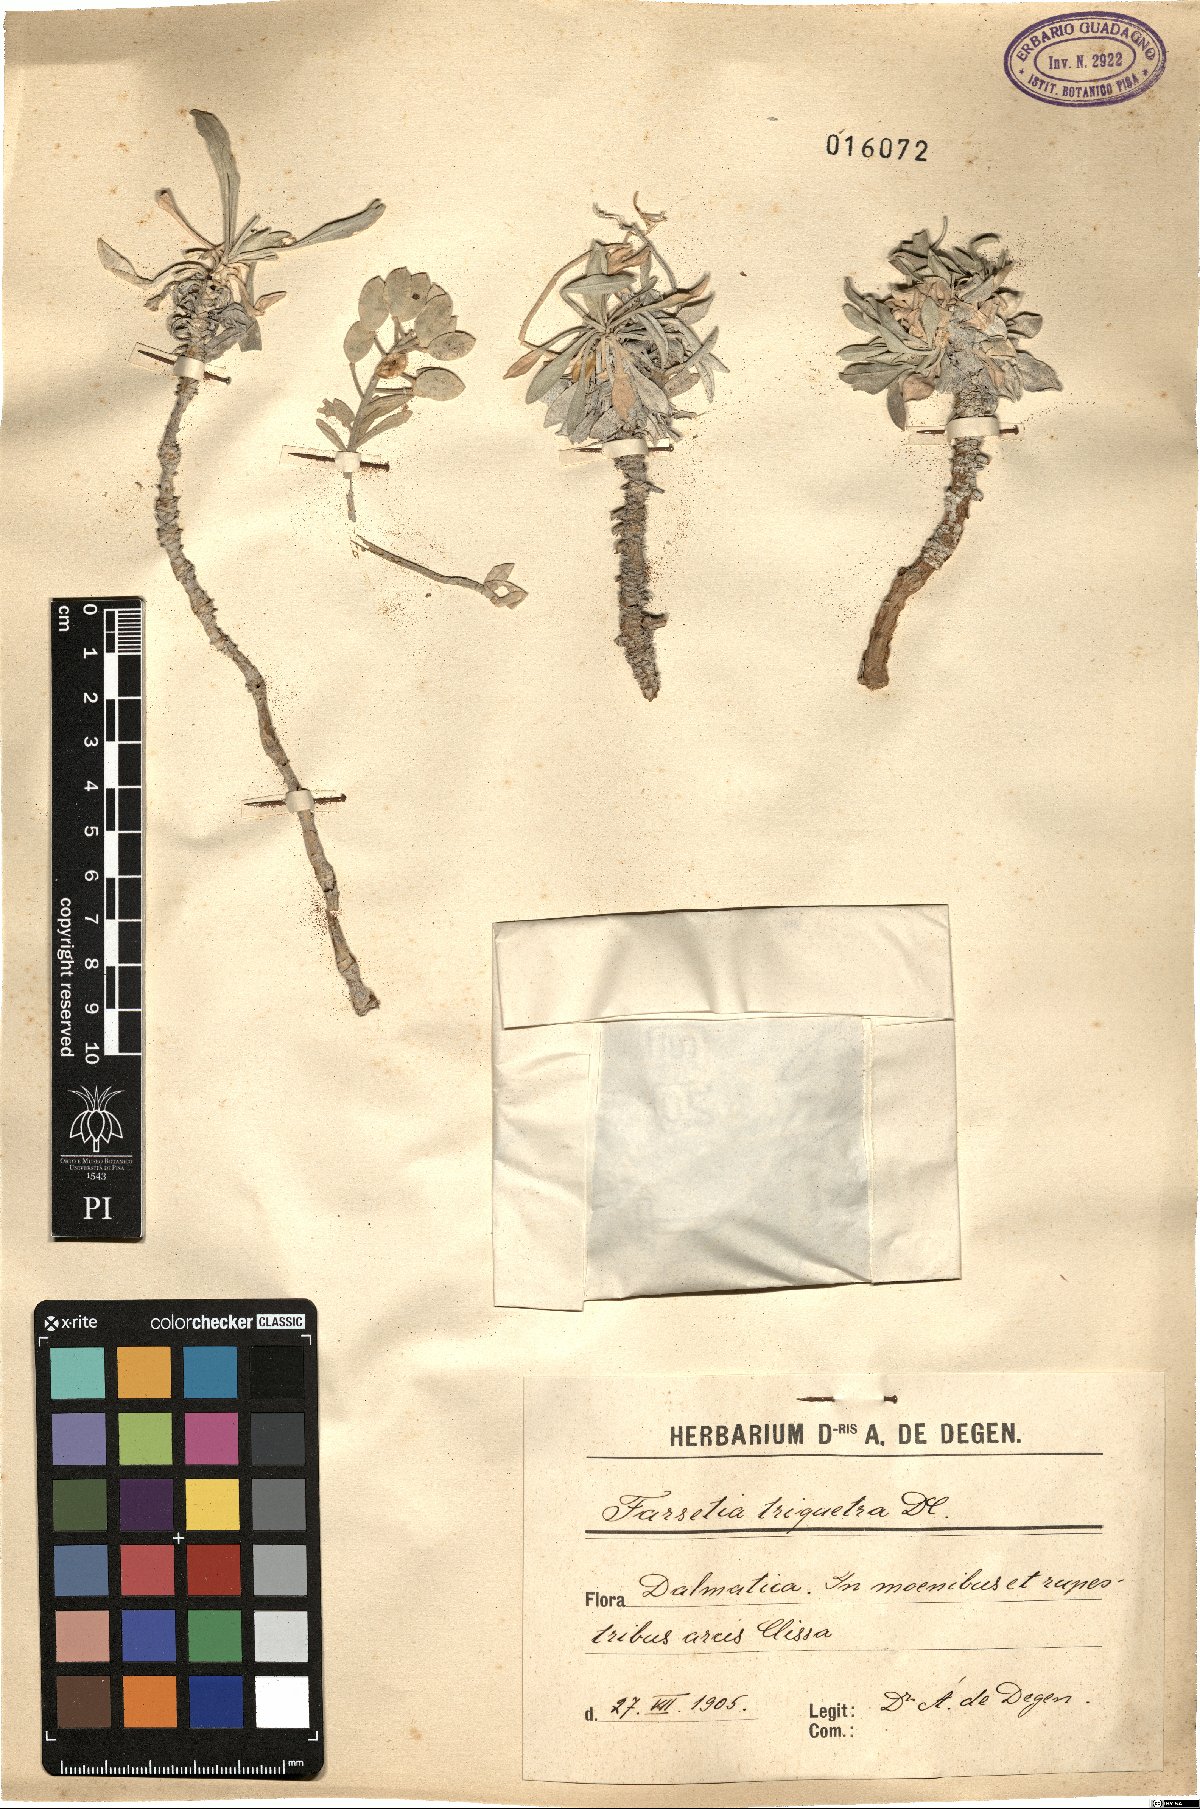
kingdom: Plantae
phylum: Tracheophyta
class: Magnoliopsida
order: Brassicales
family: Brassicaceae
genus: Resetnikia
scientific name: Resetnikia triquetra
